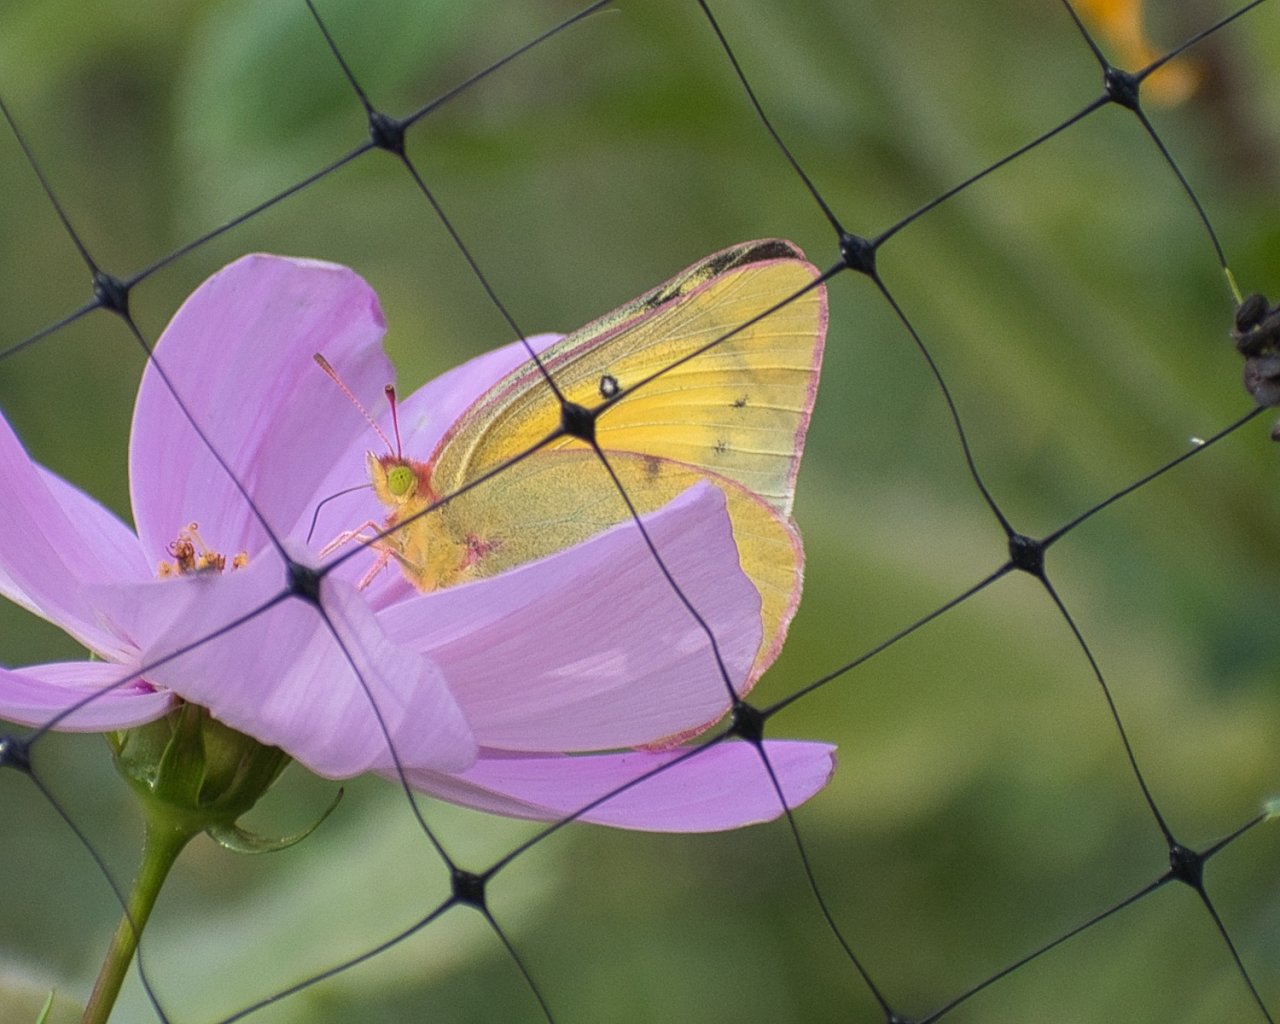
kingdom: Animalia
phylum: Arthropoda
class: Insecta
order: Lepidoptera
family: Pieridae
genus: Colias
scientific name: Colias eurytheme
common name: Orange Sulphur
